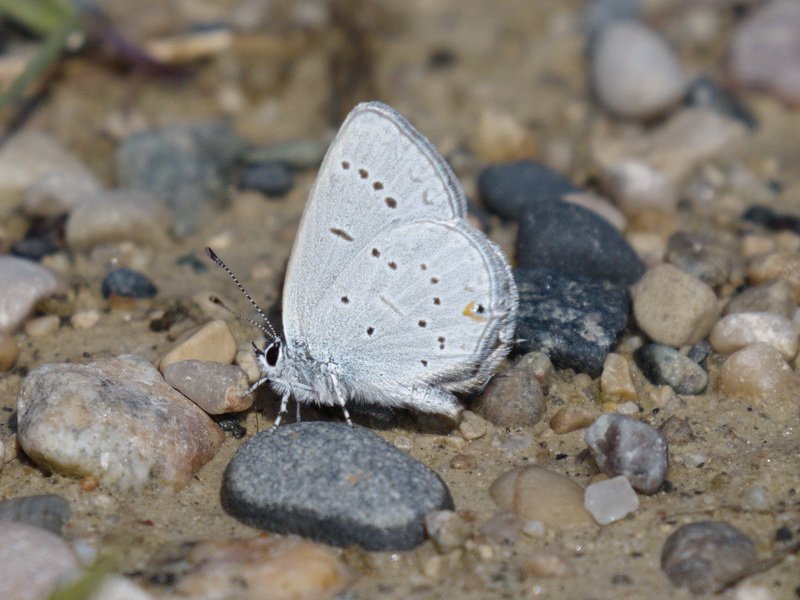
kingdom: Animalia
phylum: Arthropoda
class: Insecta
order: Lepidoptera
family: Lycaenidae
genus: Elkalyce
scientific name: Elkalyce amyntula
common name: Western Tailed-Blue
